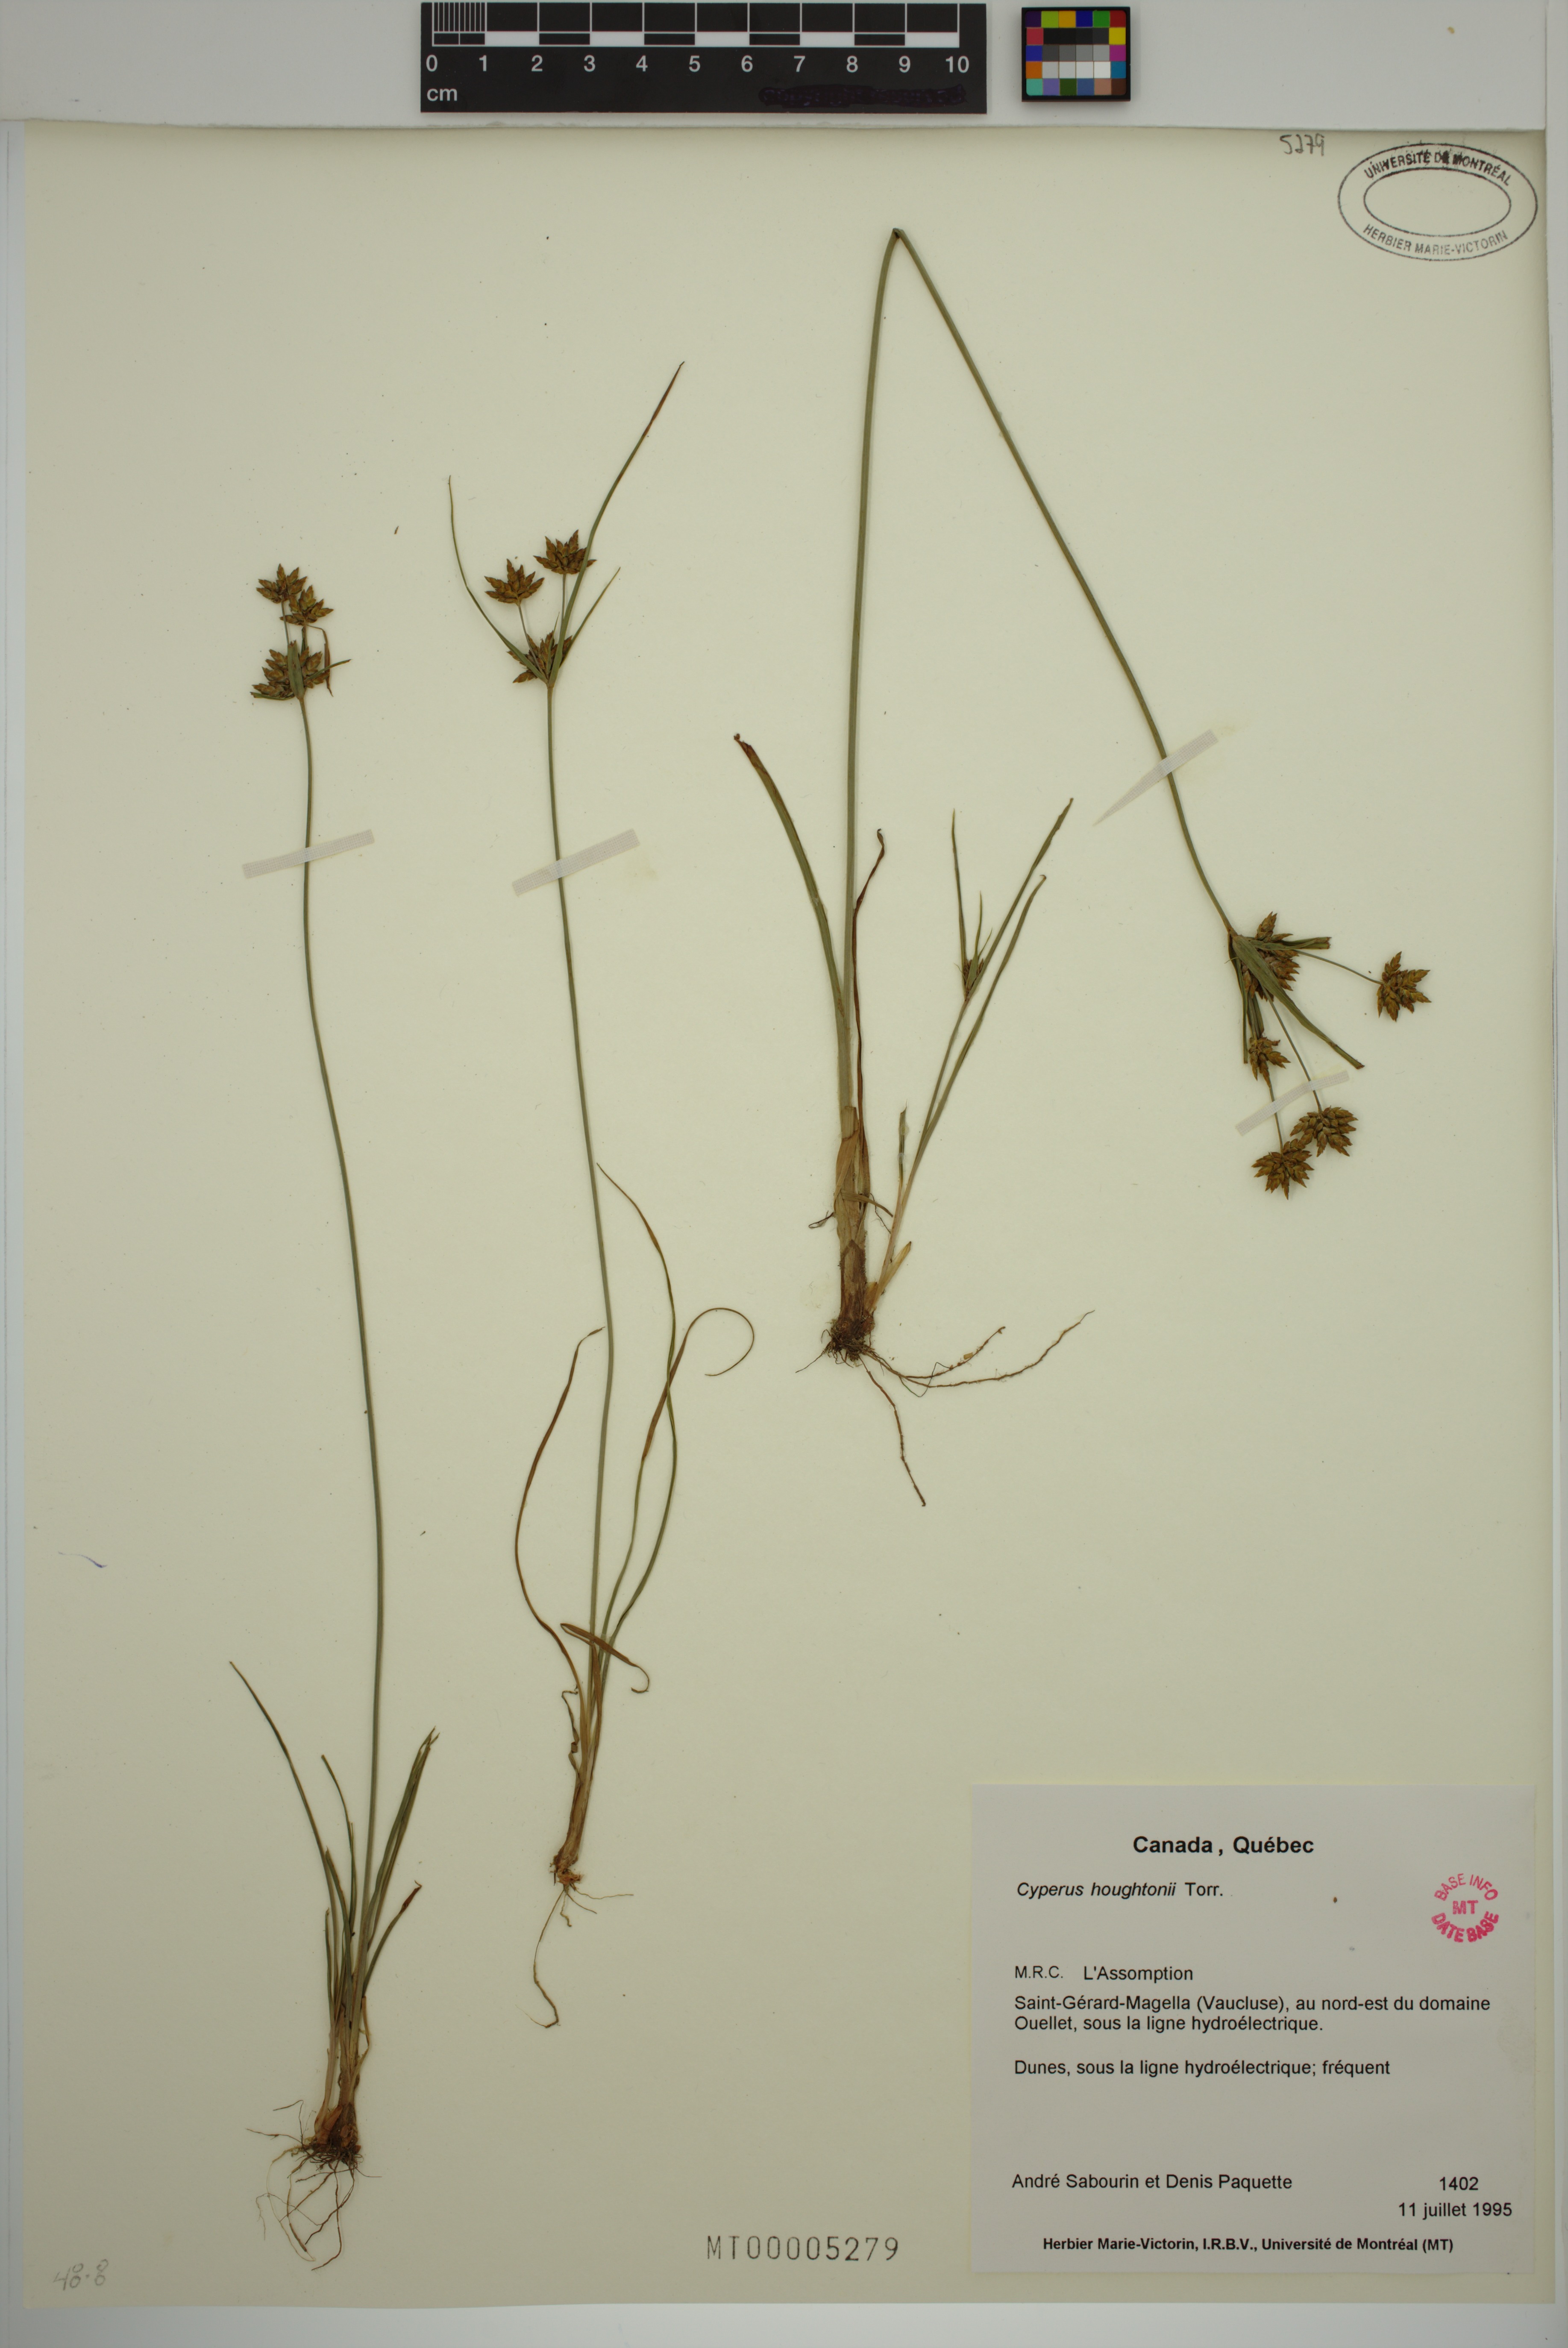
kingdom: Plantae
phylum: Tracheophyta
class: Liliopsida
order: Poales
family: Cyperaceae
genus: Cyperus
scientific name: Cyperus houghtonii
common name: Houghton's cyperus
